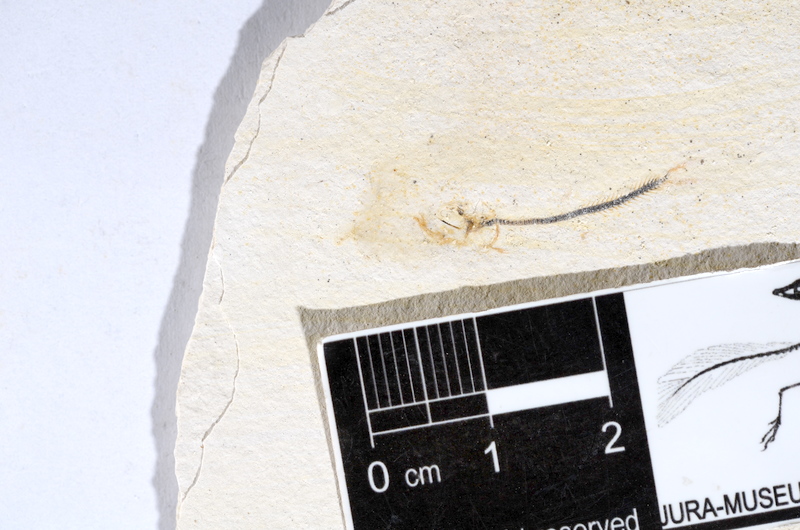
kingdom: Animalia
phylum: Chordata
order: Salmoniformes
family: Orthogonikleithridae
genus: Orthogonikleithrus
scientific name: Orthogonikleithrus hoelli
